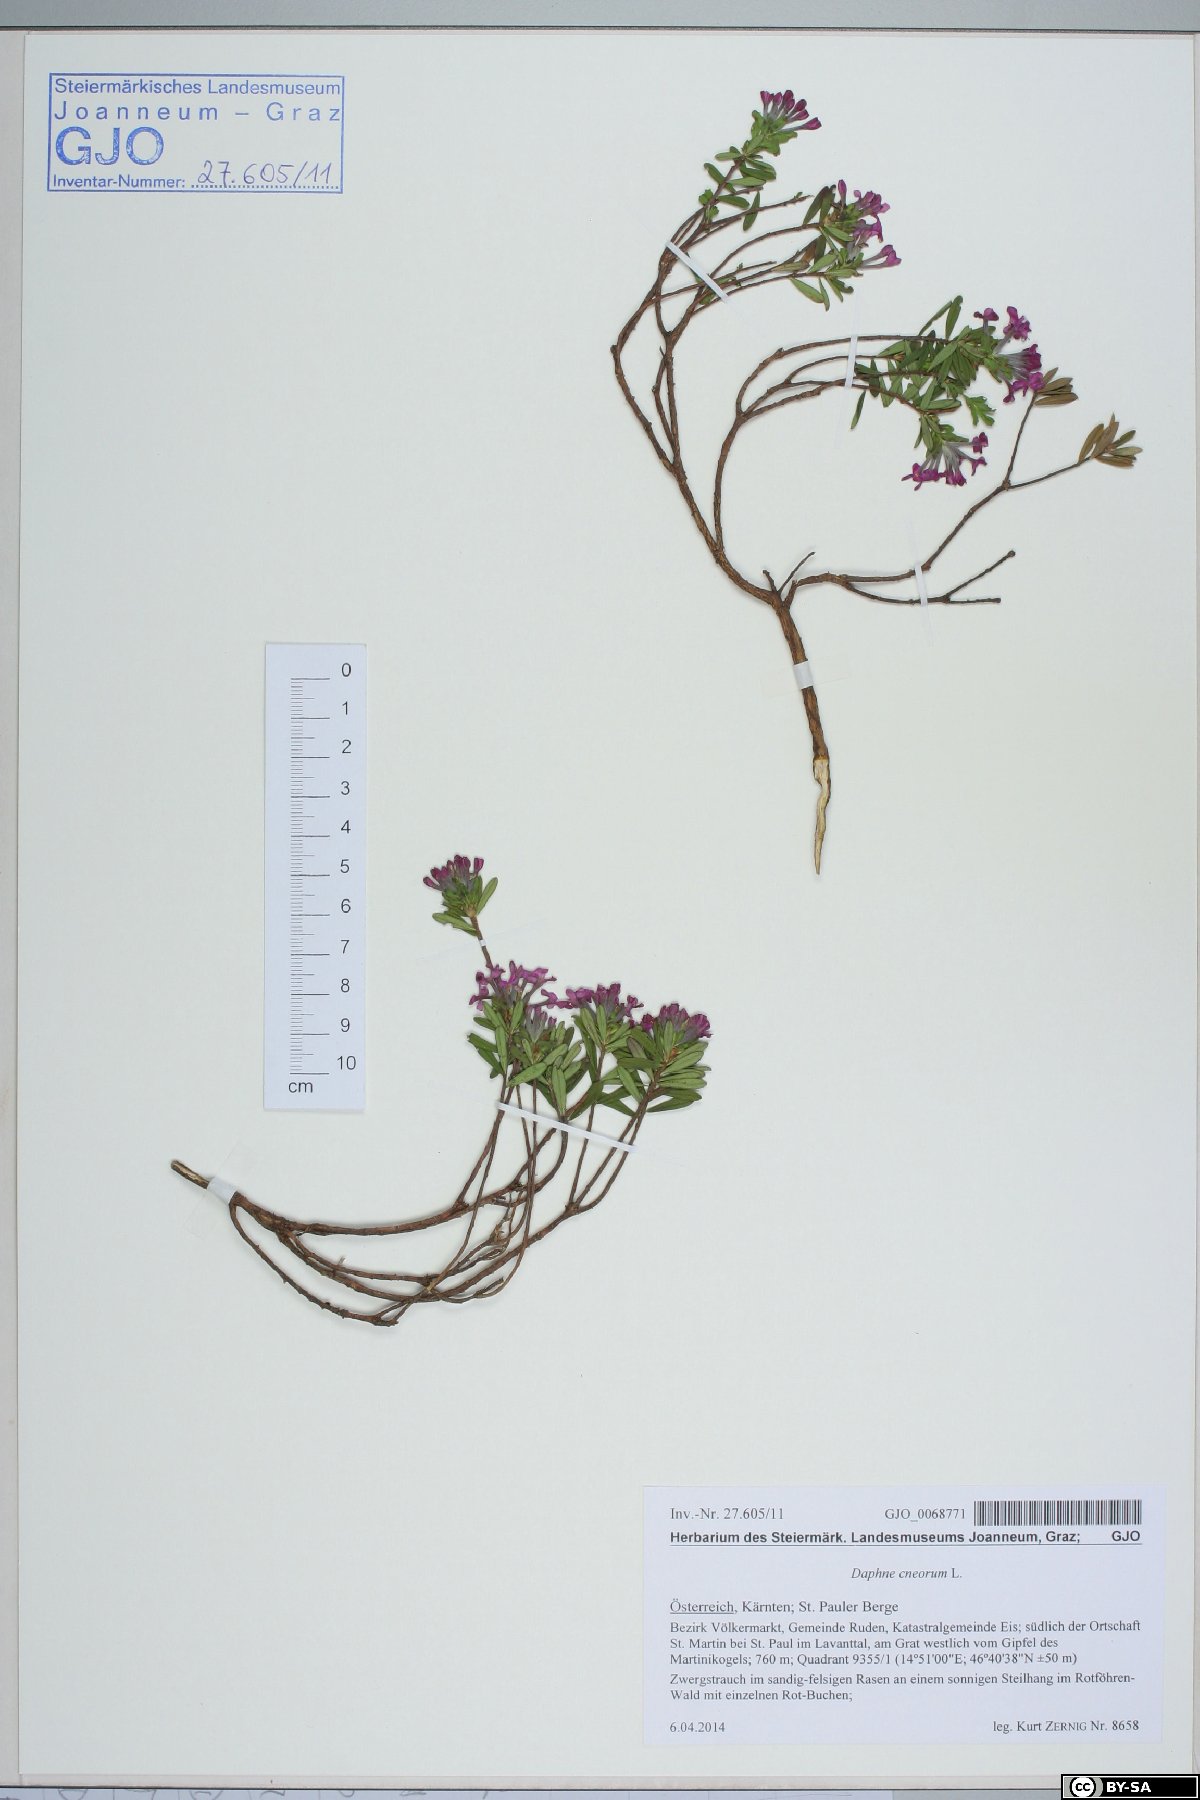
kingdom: Plantae
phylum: Tracheophyta
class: Magnoliopsida
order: Malvales
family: Thymelaeaceae
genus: Daphne
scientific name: Daphne cneorum
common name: Garland-flower
